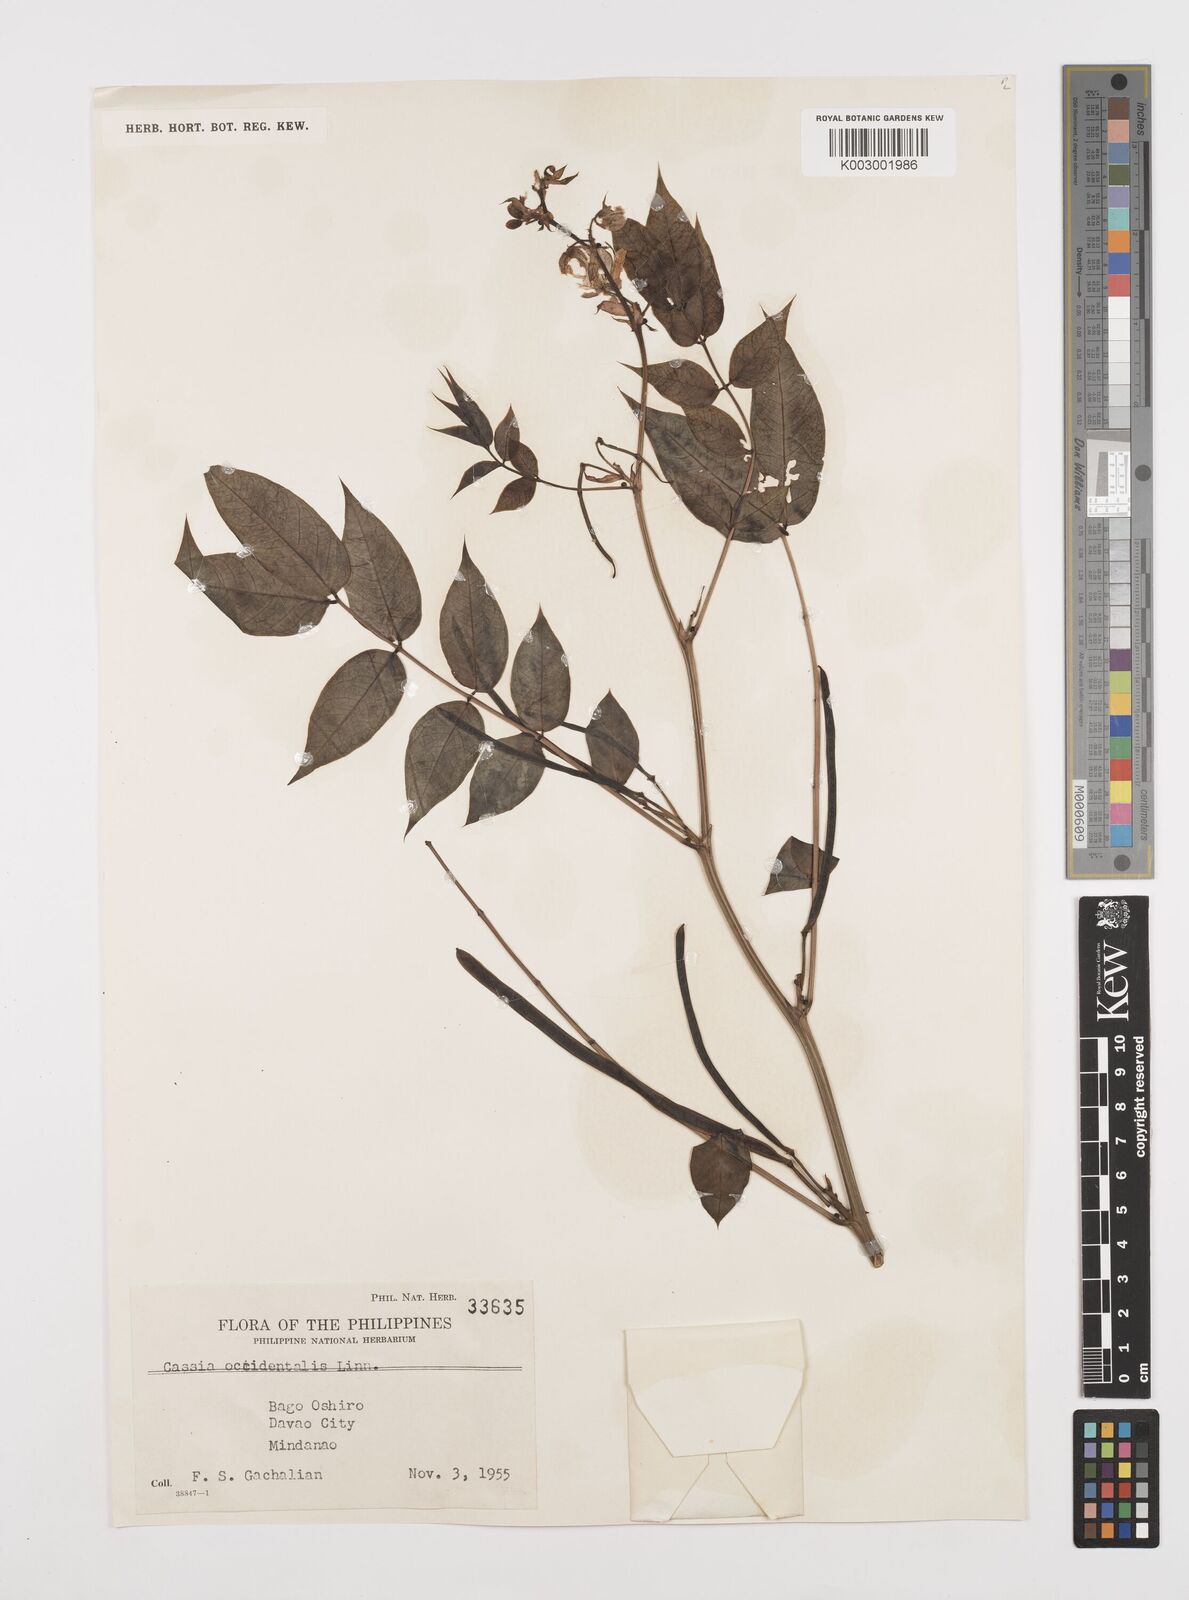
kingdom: Plantae
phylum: Tracheophyta
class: Magnoliopsida
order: Fabales
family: Fabaceae
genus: Senna
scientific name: Senna occidentalis
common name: Septicweed
